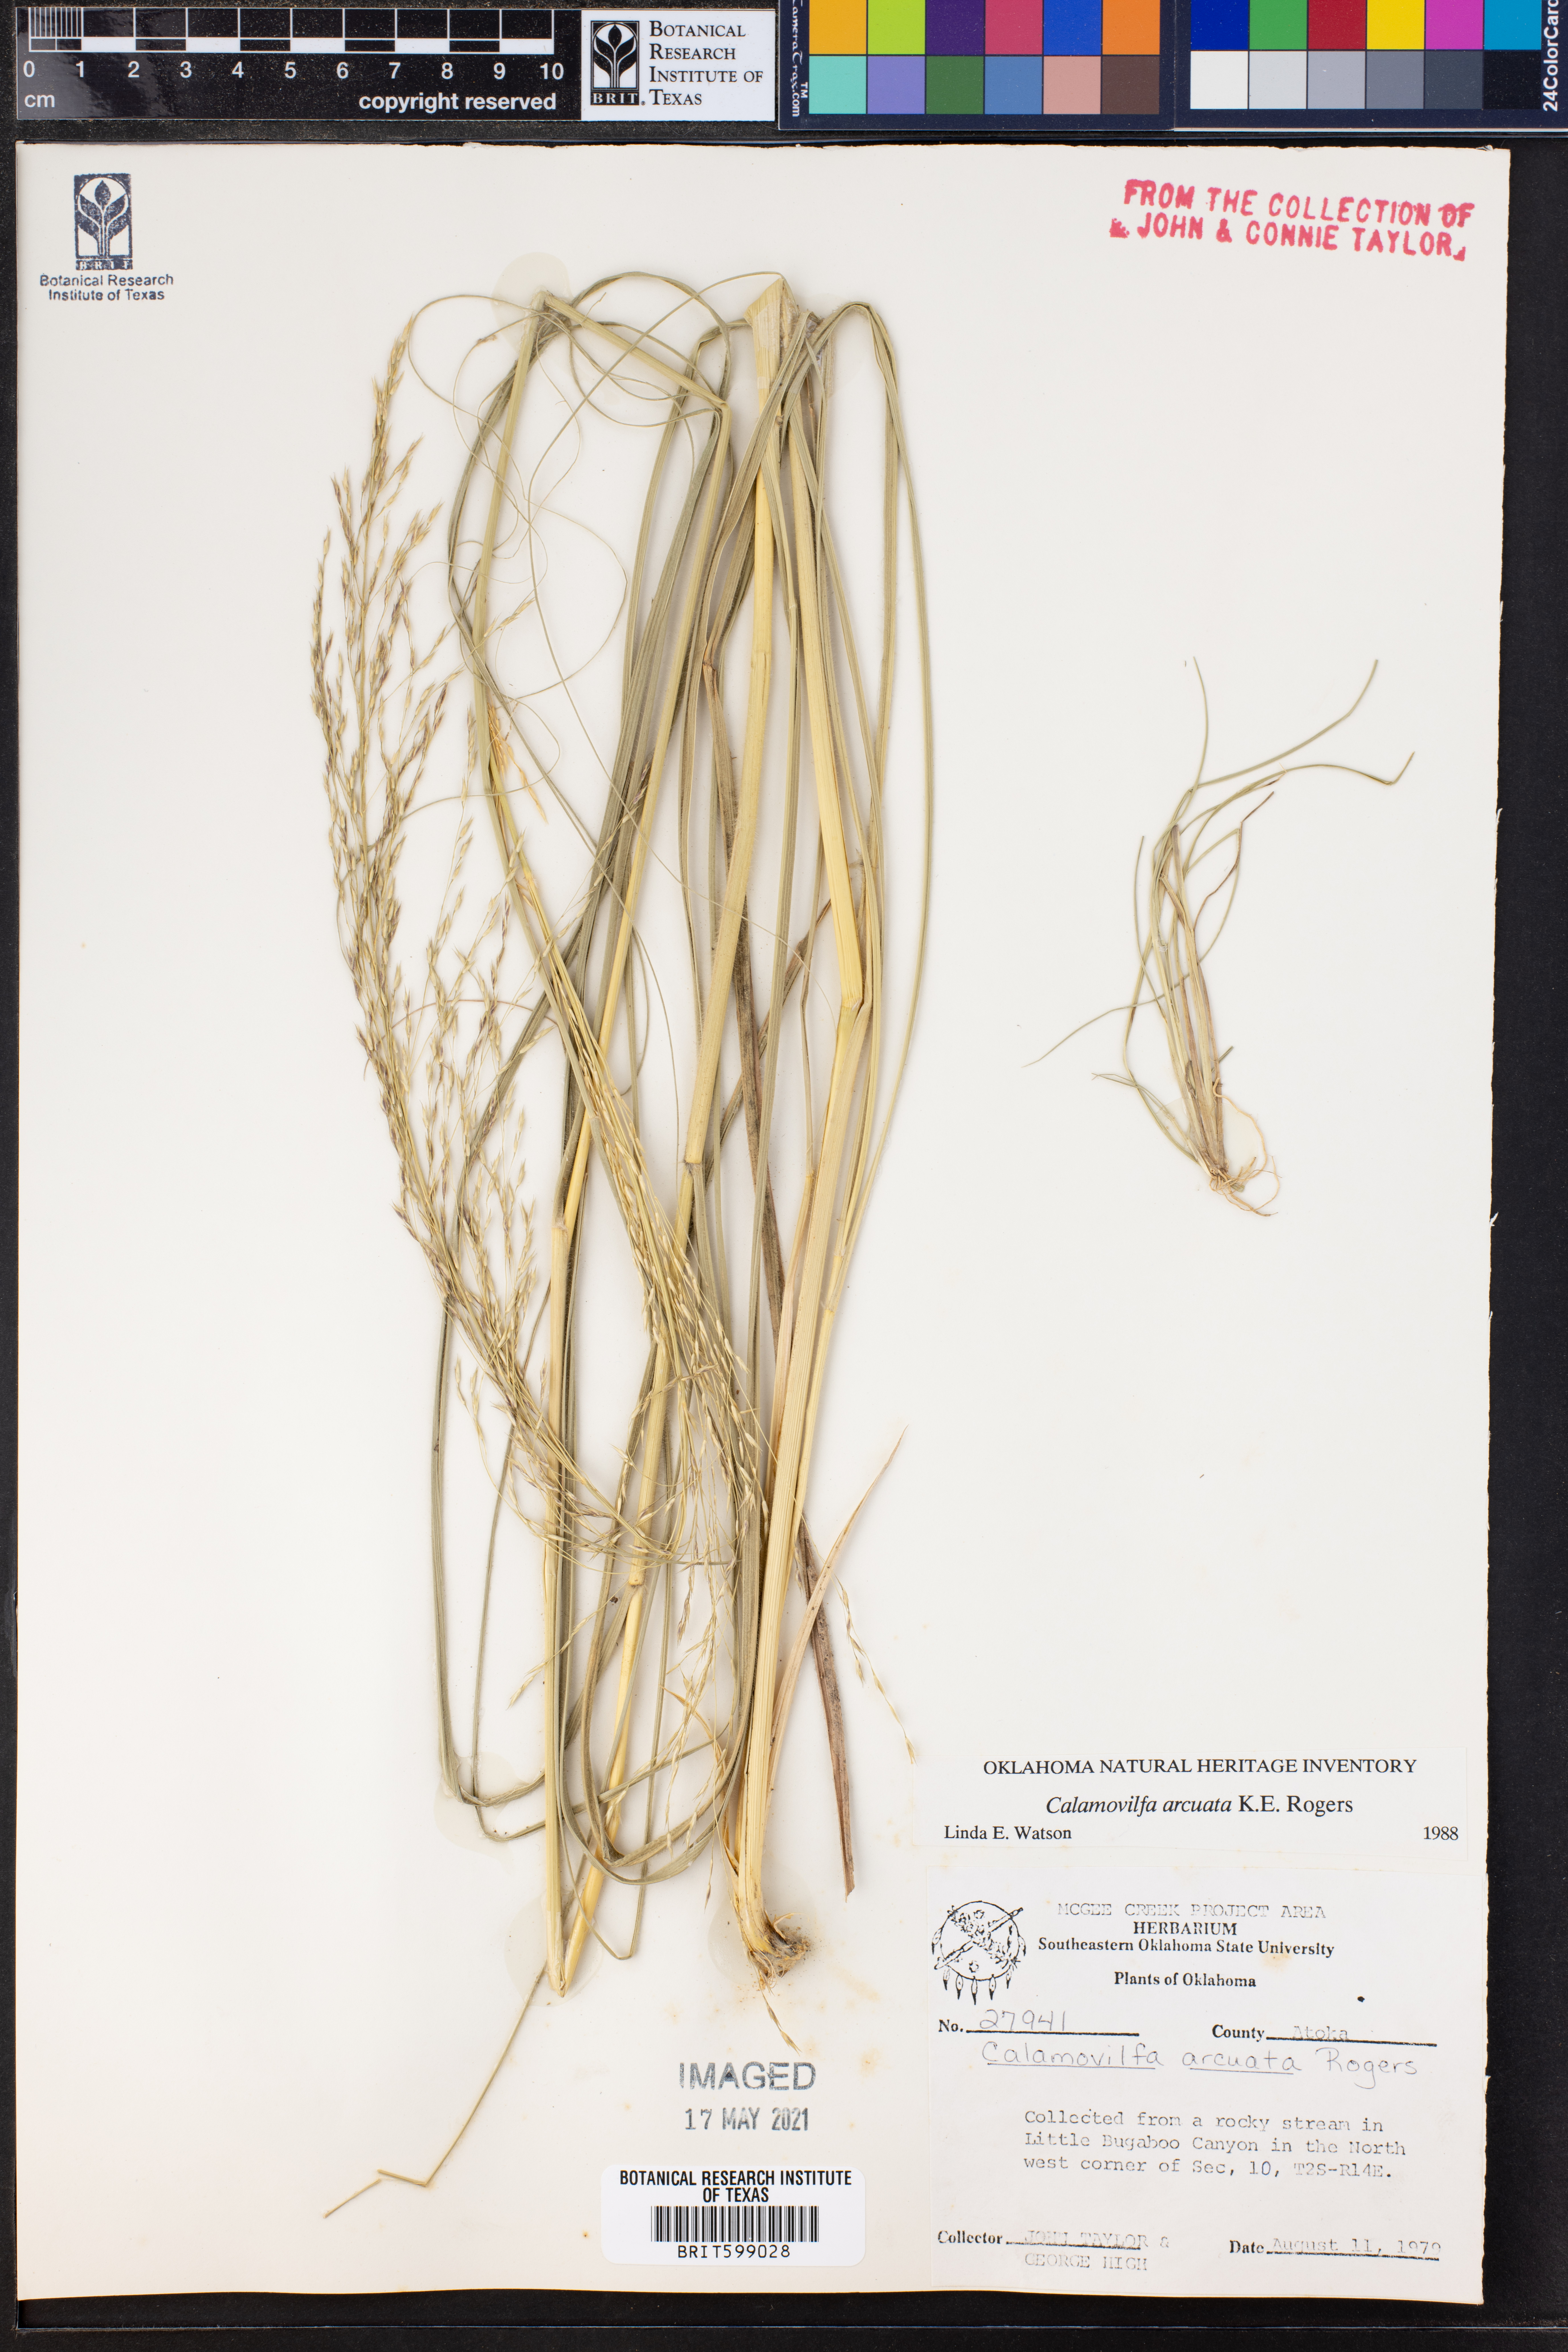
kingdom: Plantae
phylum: Tracheophyta
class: Liliopsida
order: Poales
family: Poaceae
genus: Sporobolus
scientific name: Sporobolus arcuatus
